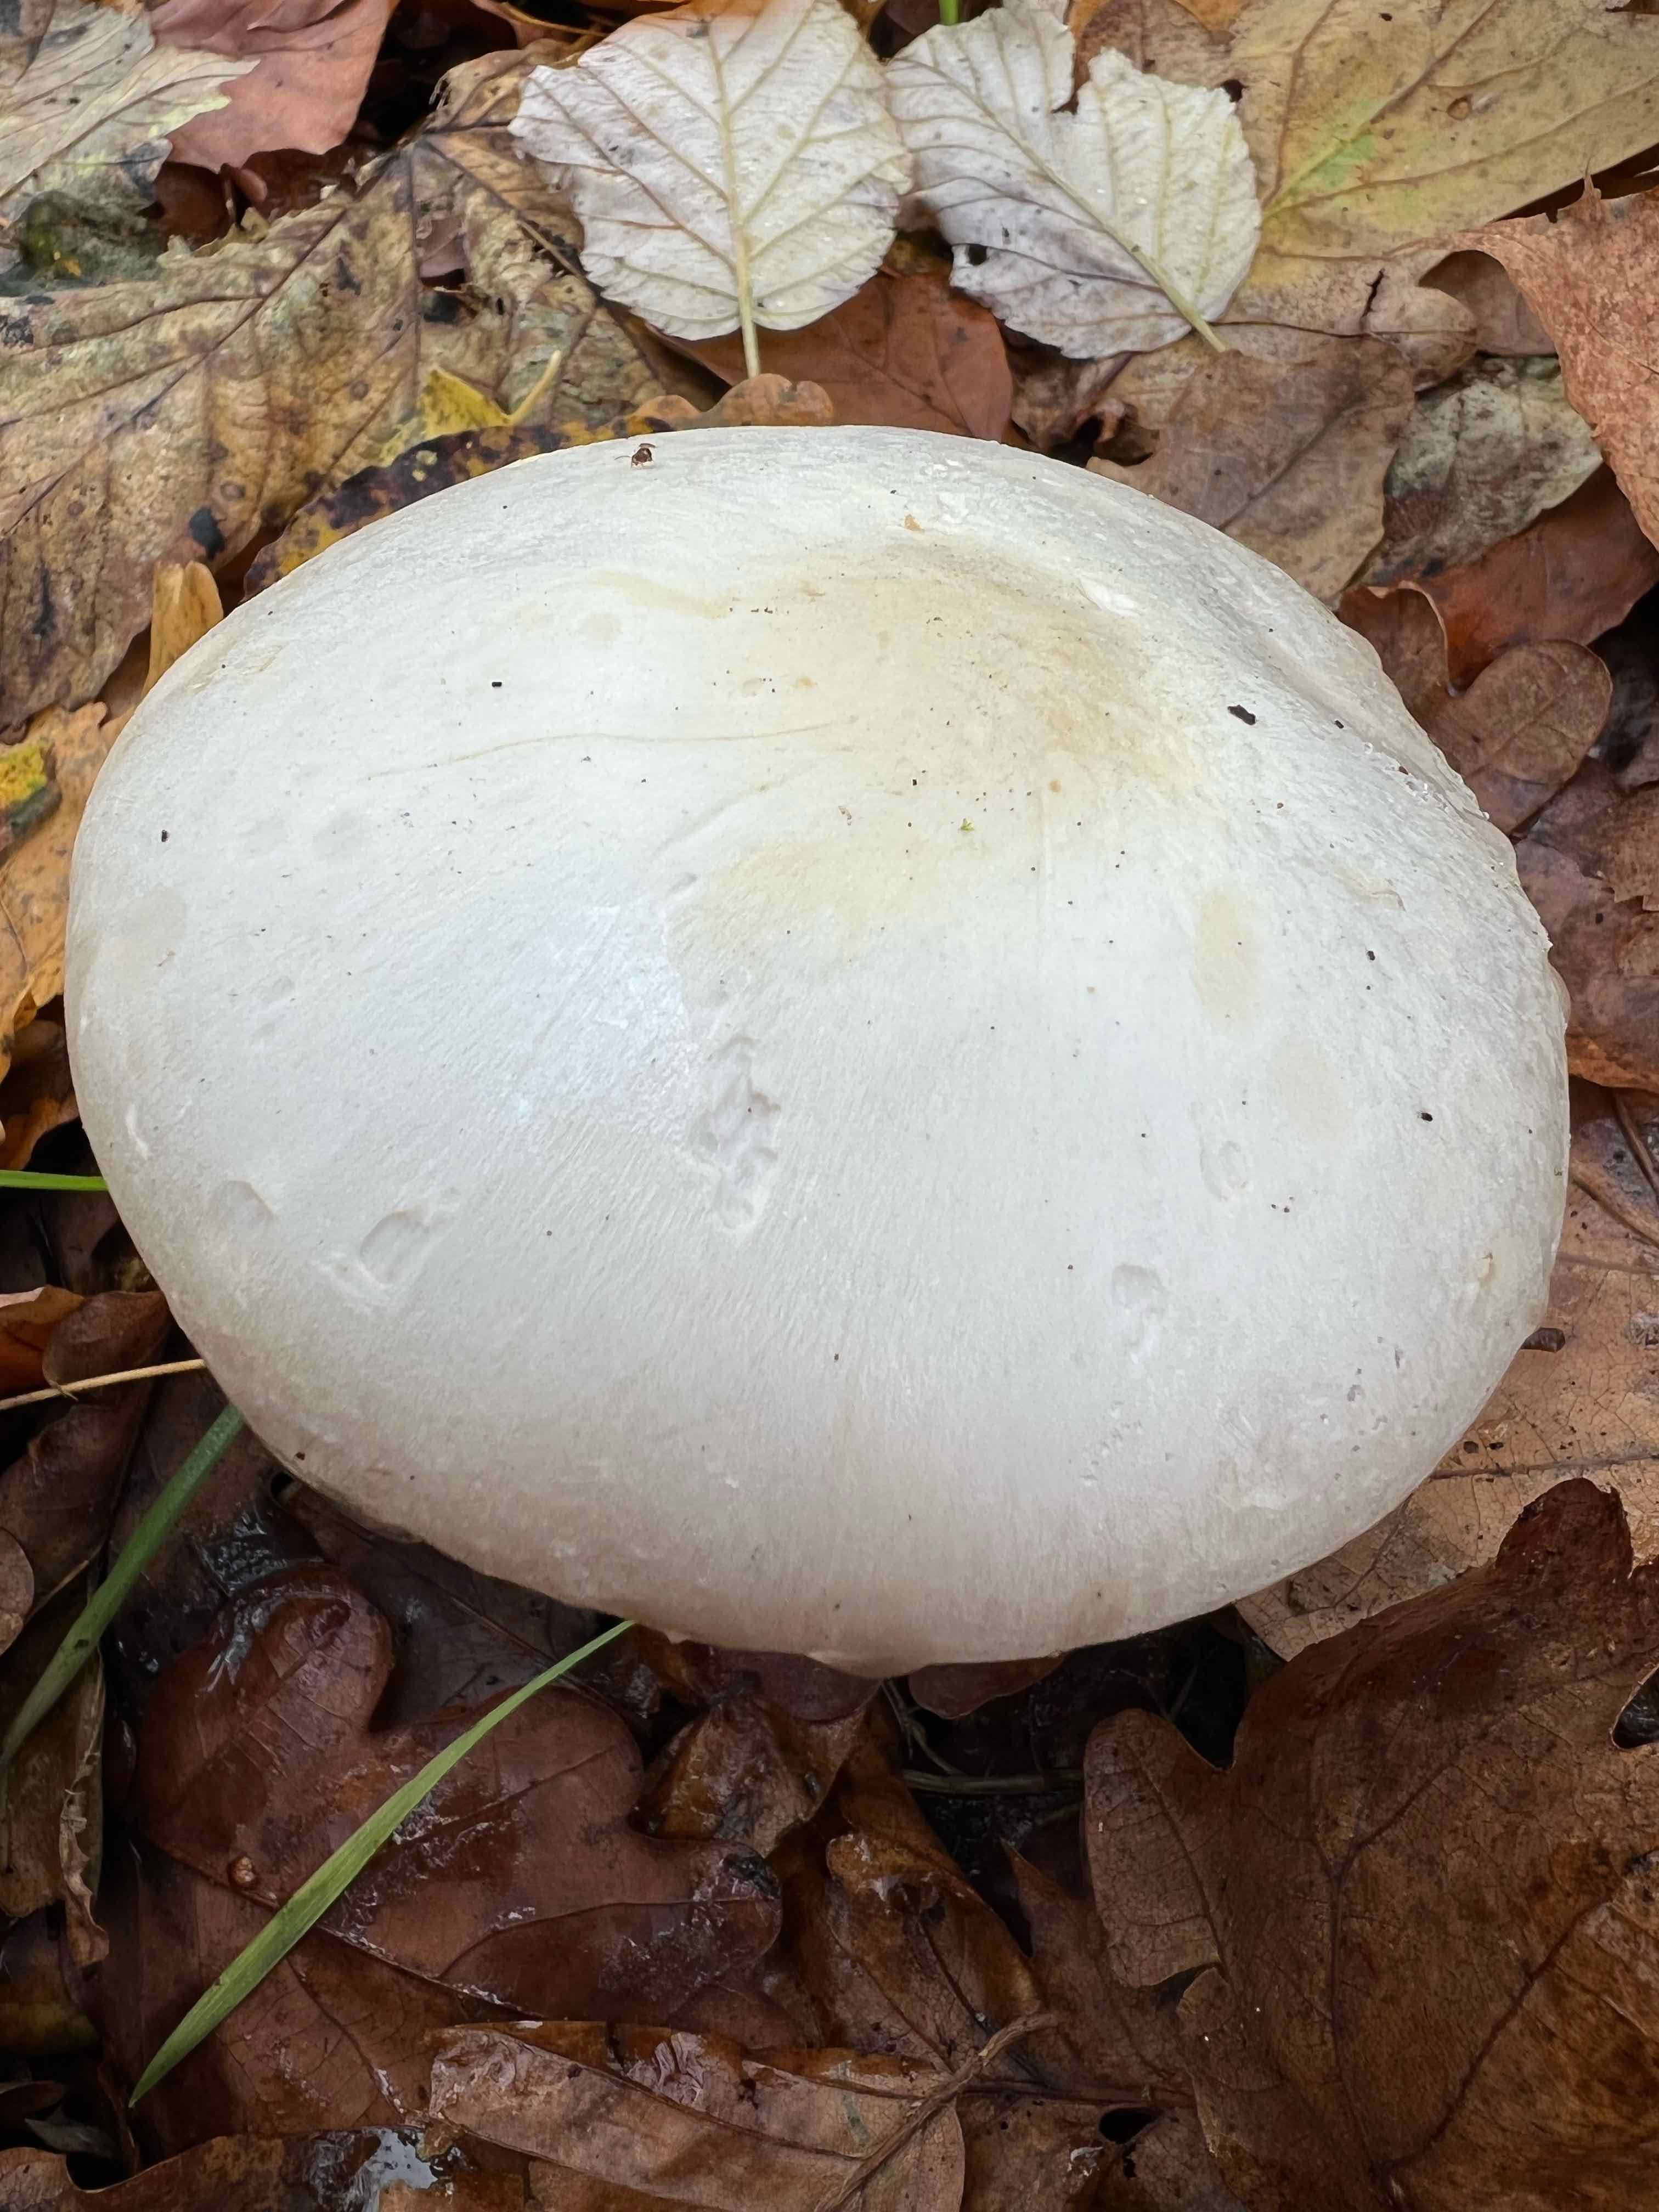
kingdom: Fungi
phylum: Basidiomycota
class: Agaricomycetes
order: Agaricales
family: Agaricaceae
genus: Agaricus
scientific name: Agaricus
